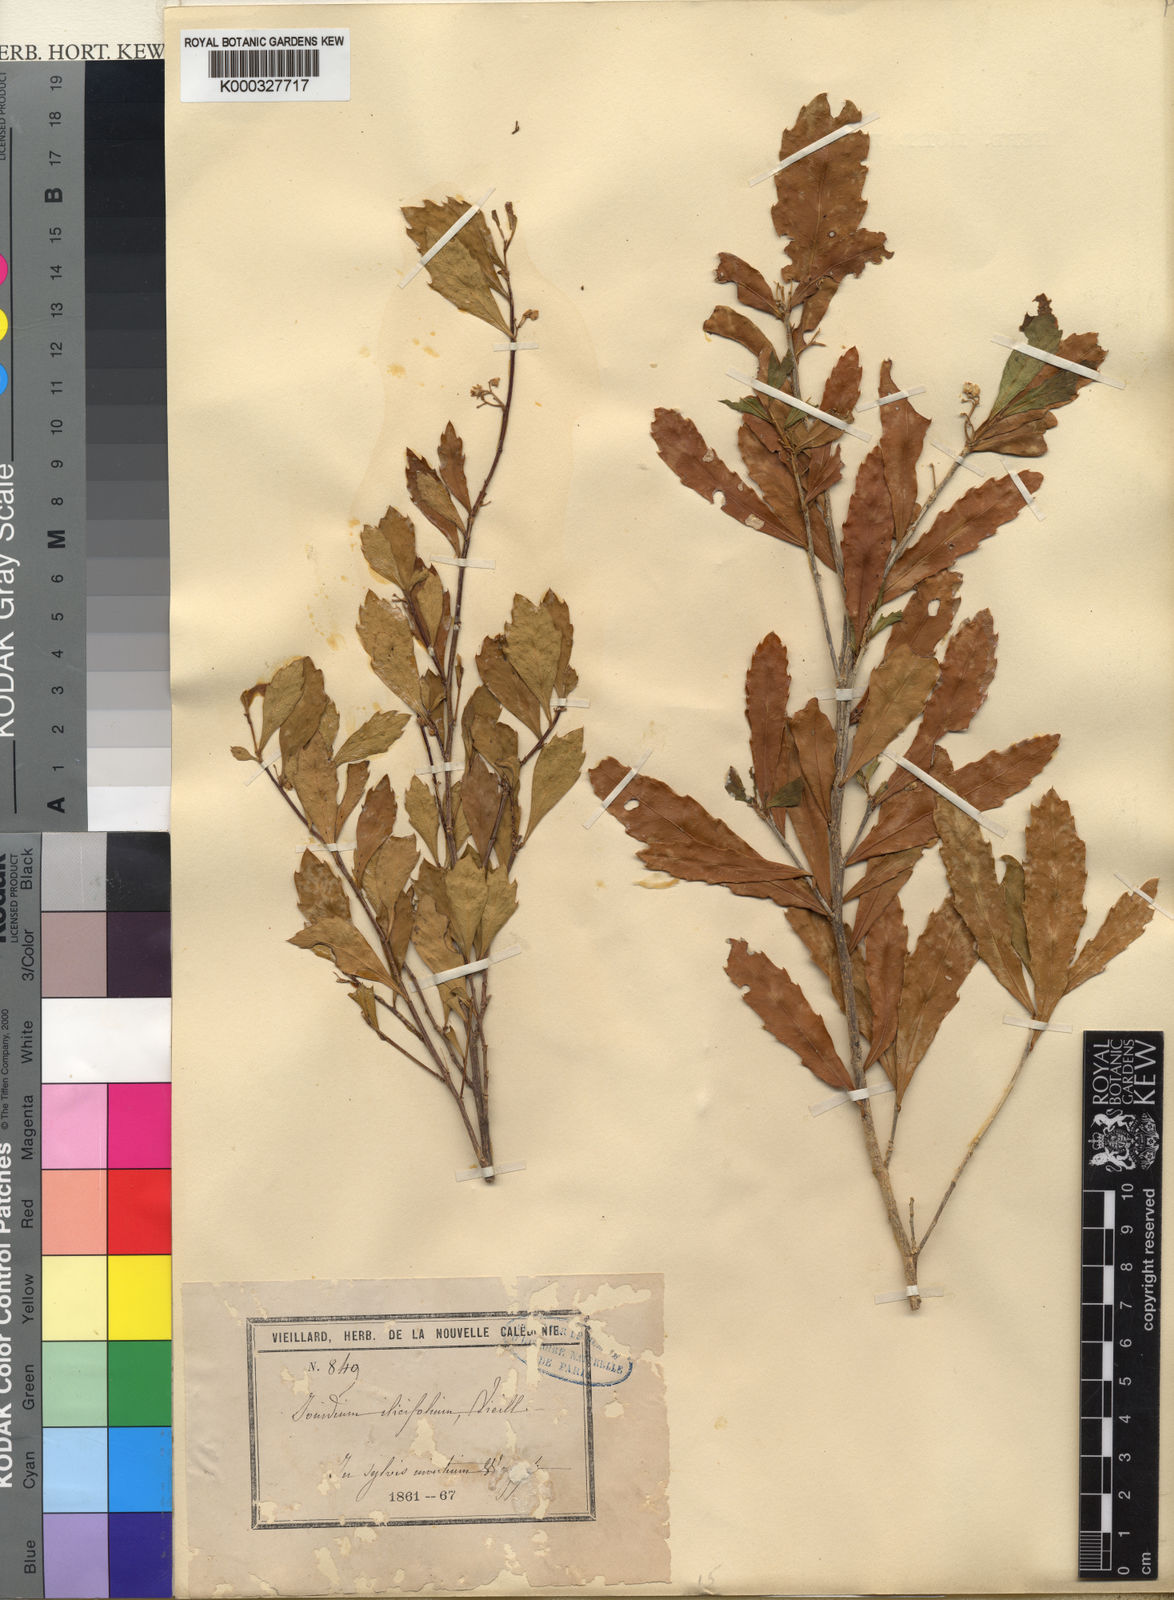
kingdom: Plantae
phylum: Tracheophyta
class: Magnoliopsida
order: Malpighiales
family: Violaceae
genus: Pigea
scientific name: Pigea caledonica
